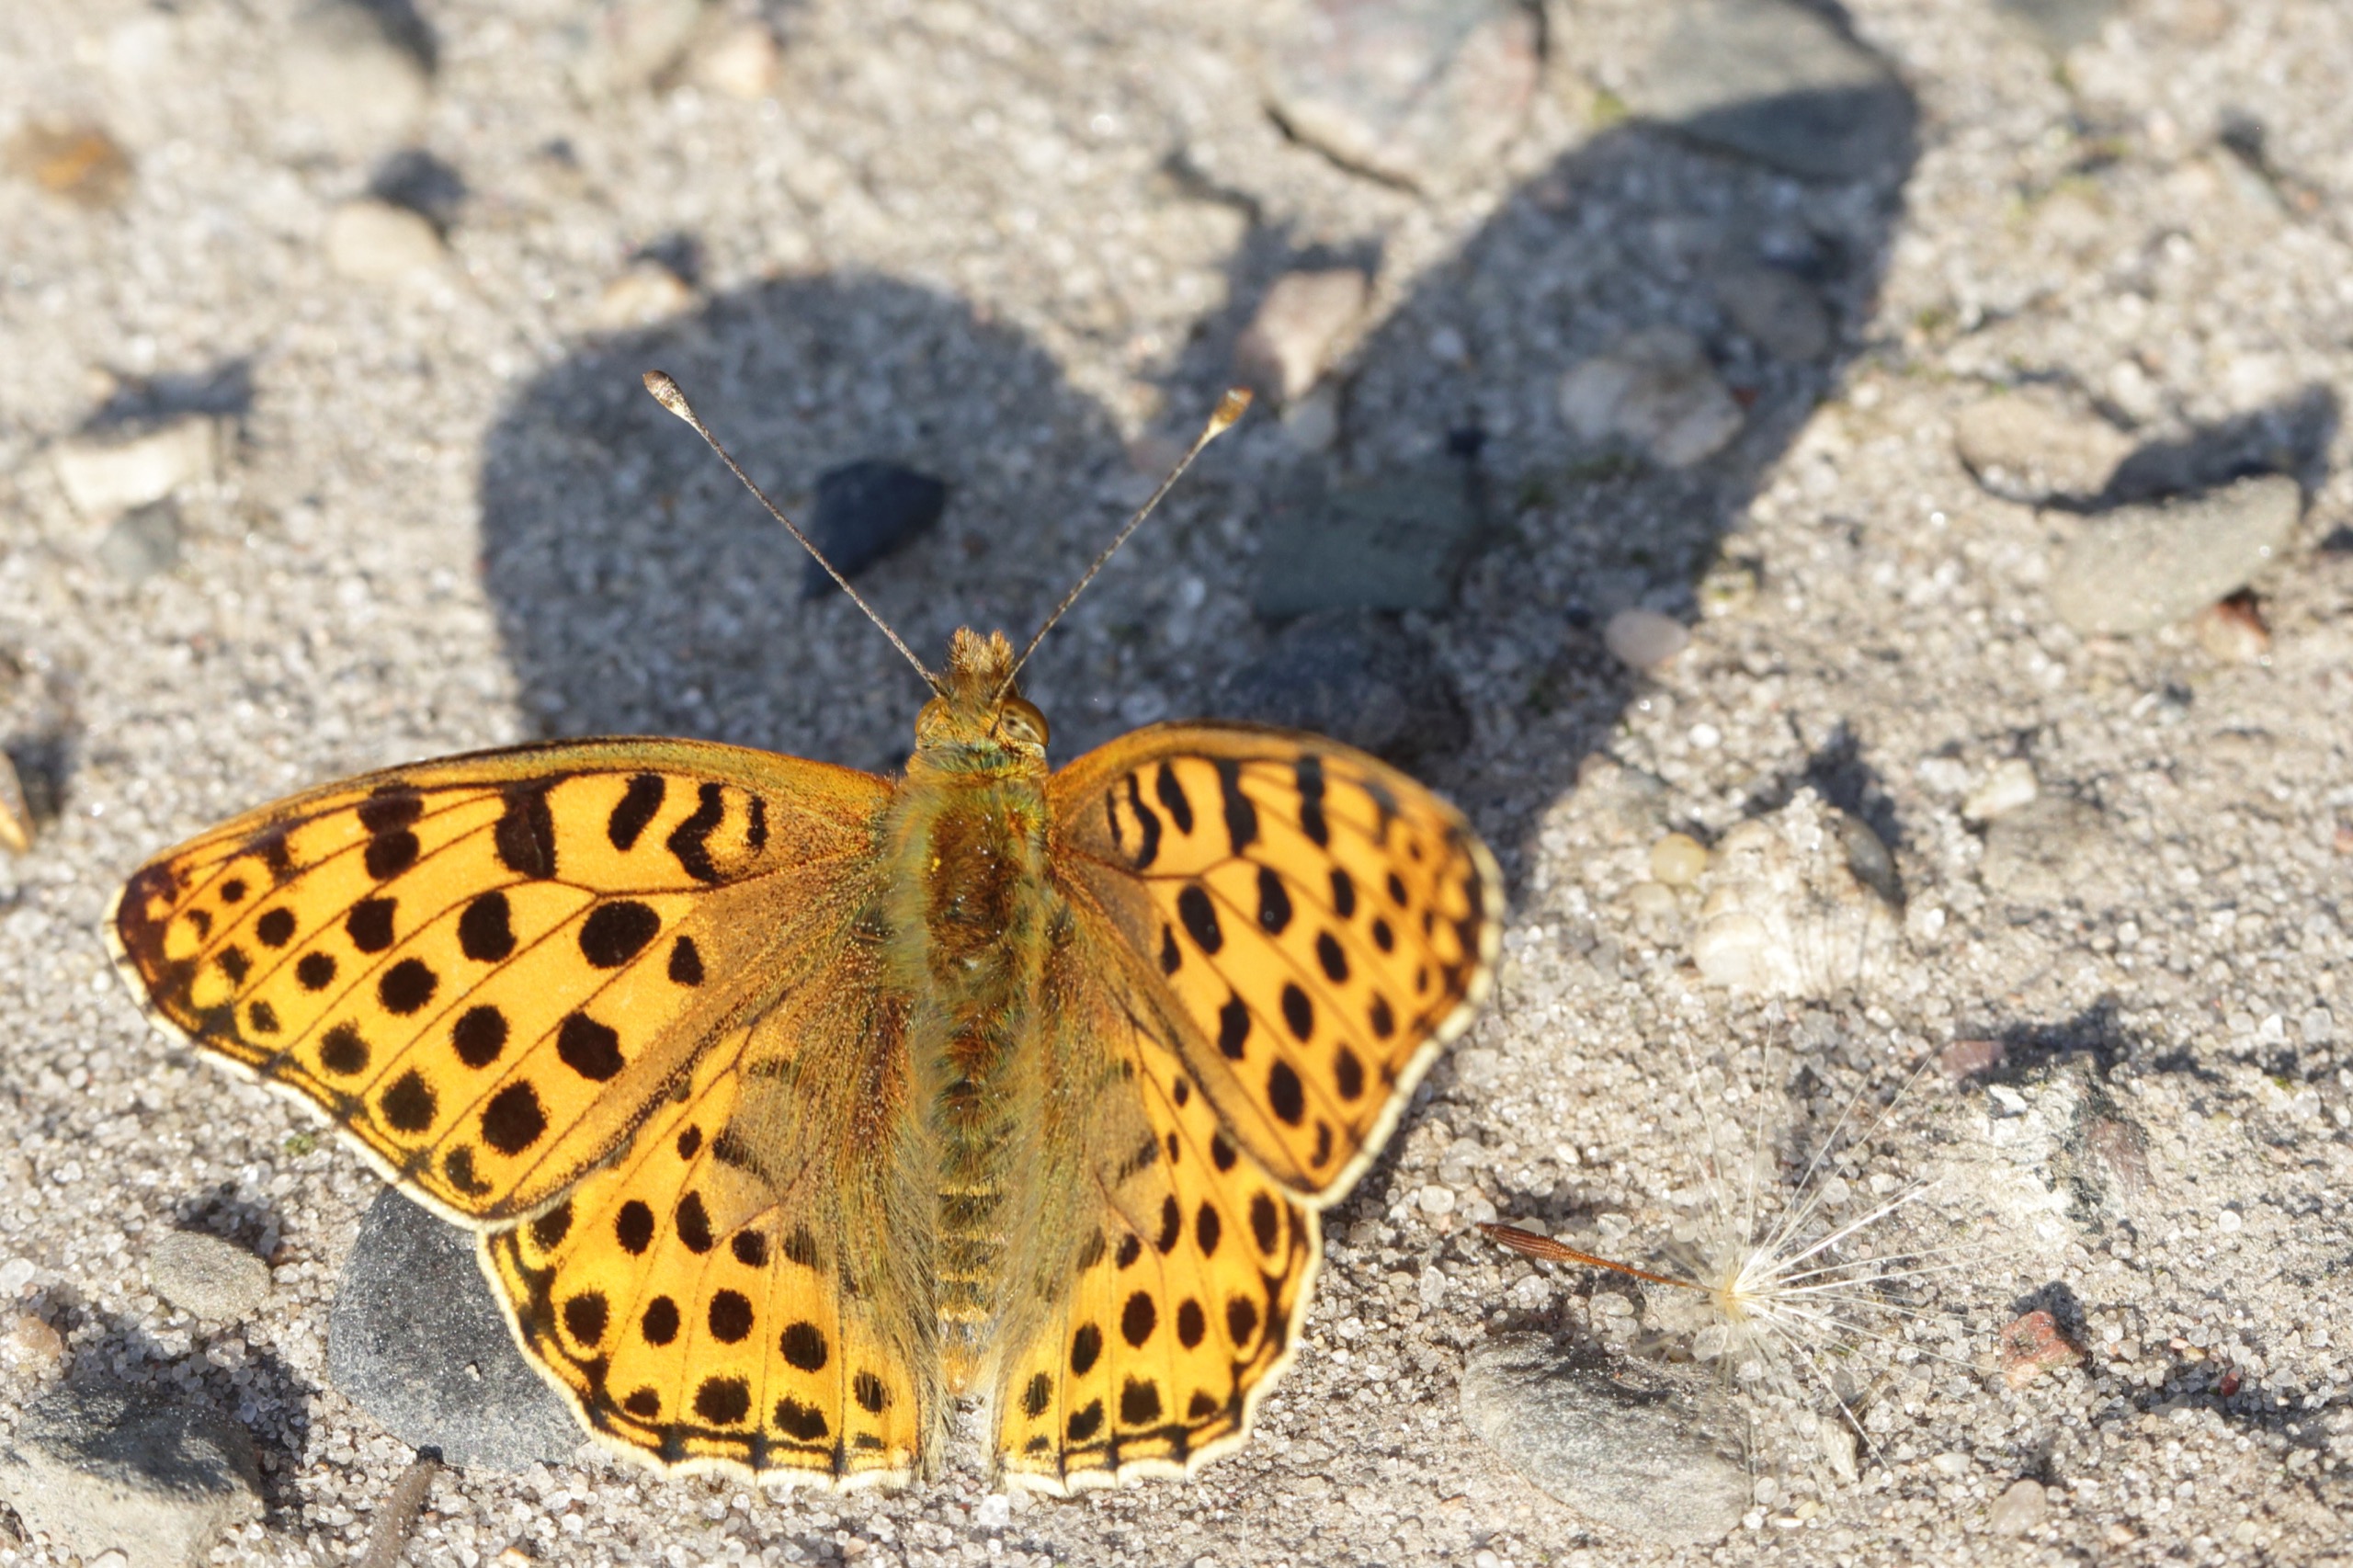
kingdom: Animalia
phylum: Arthropoda
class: Insecta
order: Lepidoptera
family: Nymphalidae
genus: Issoria
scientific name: Issoria lathonia
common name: Storplettet perlemorsommerfugl
